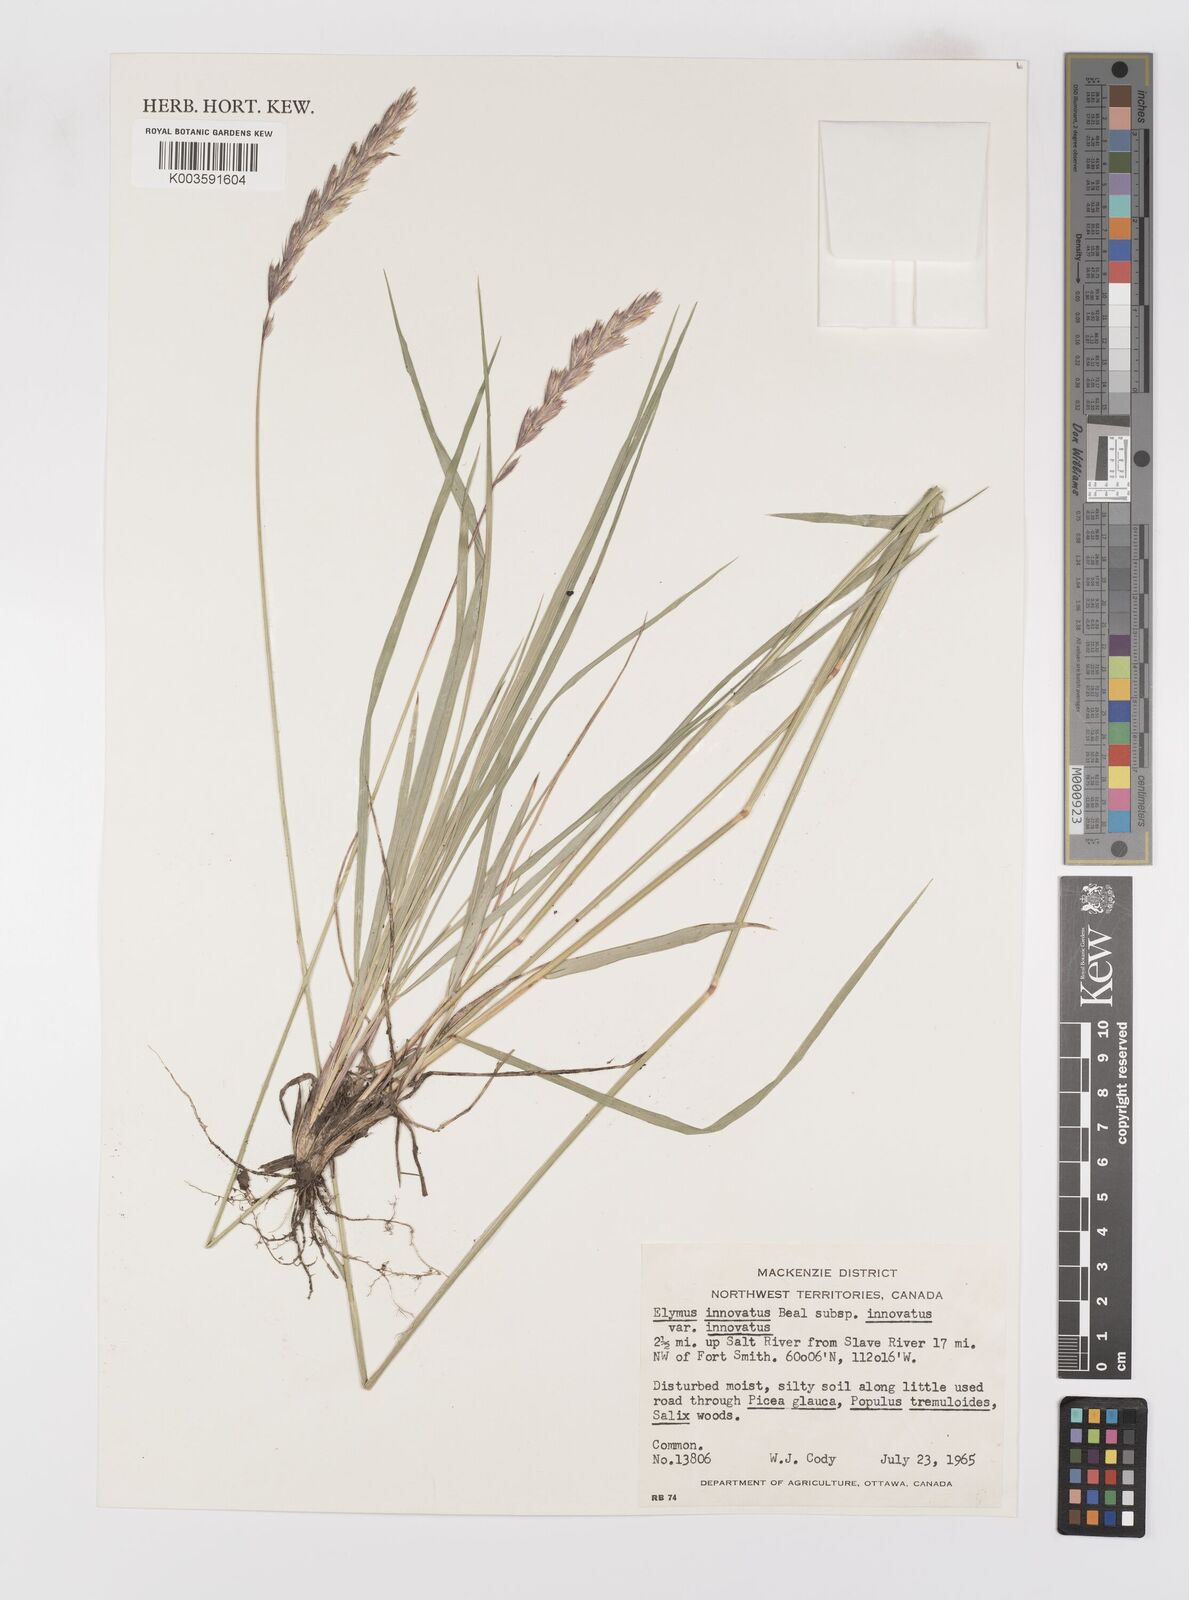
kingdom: Plantae
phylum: Tracheophyta
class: Liliopsida
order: Poales
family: Poaceae
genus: Leymus
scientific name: Leymus innovatus
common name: Boreal wild rye
